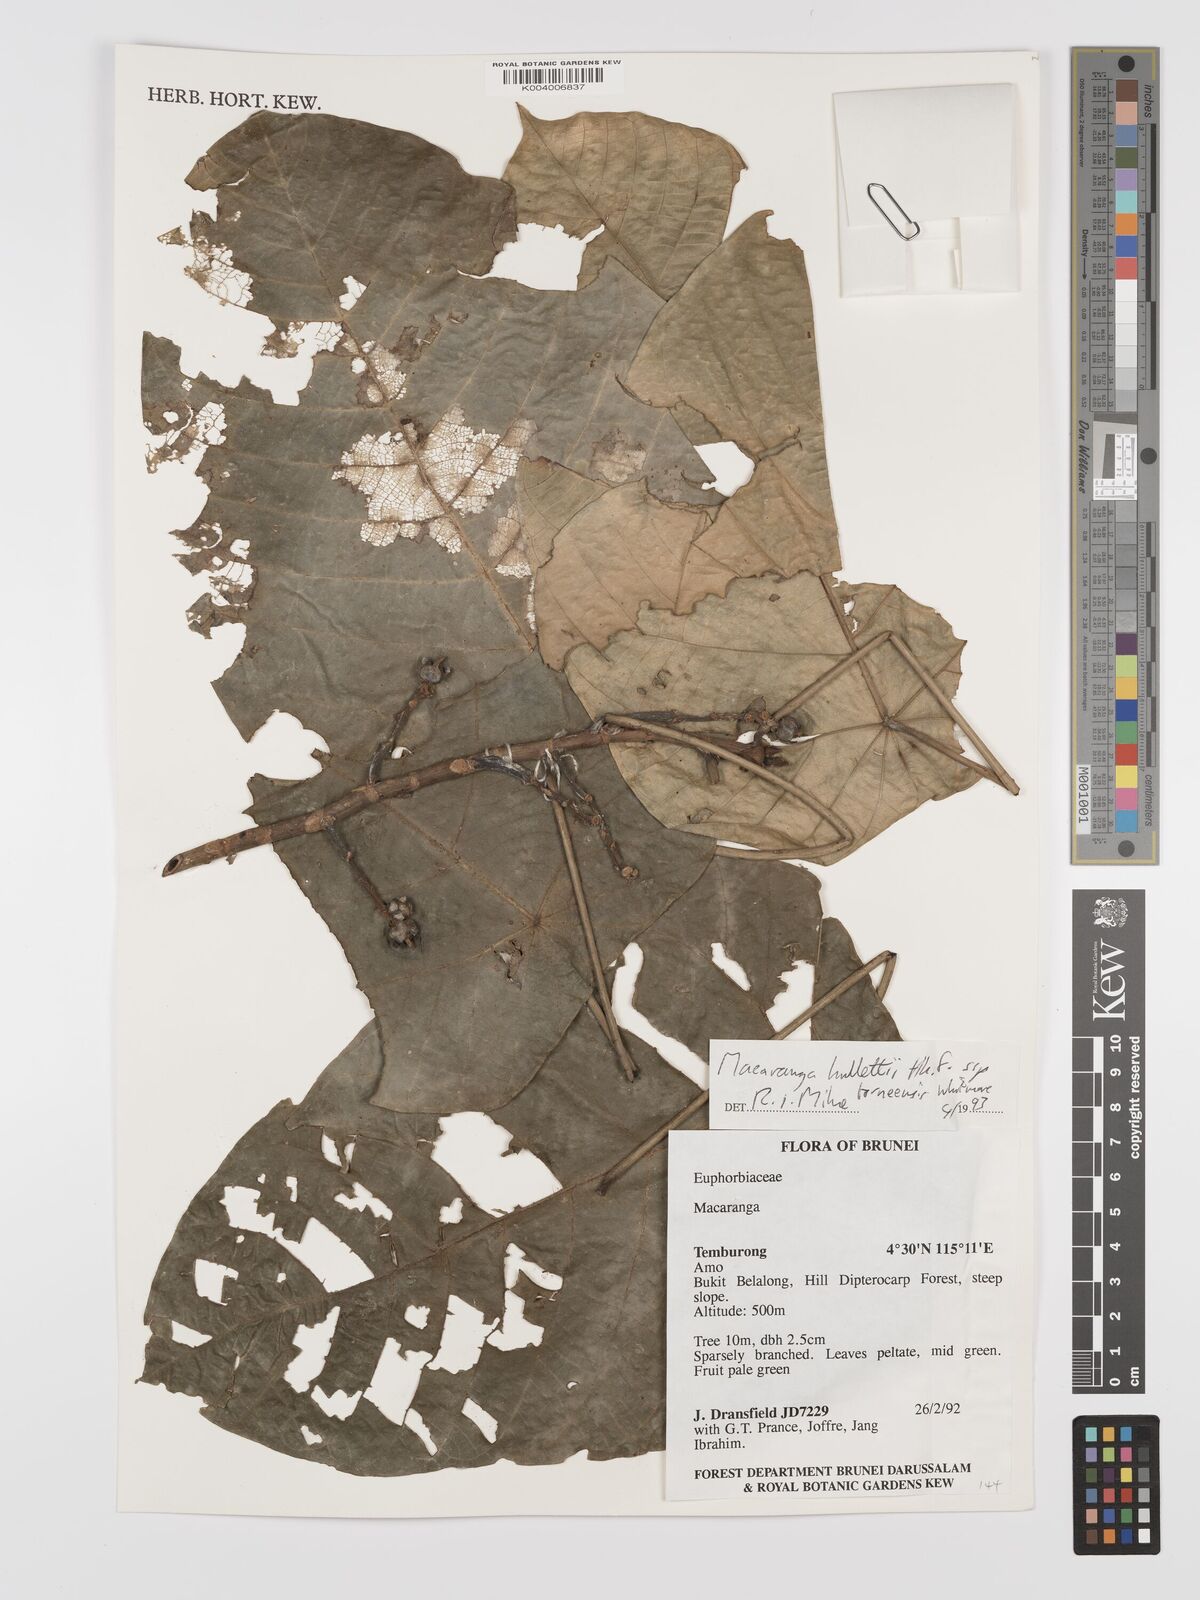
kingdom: Plantae
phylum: Tracheophyta
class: Magnoliopsida
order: Malpighiales
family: Euphorbiaceae
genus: Macaranga
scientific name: Macaranga hullettii
